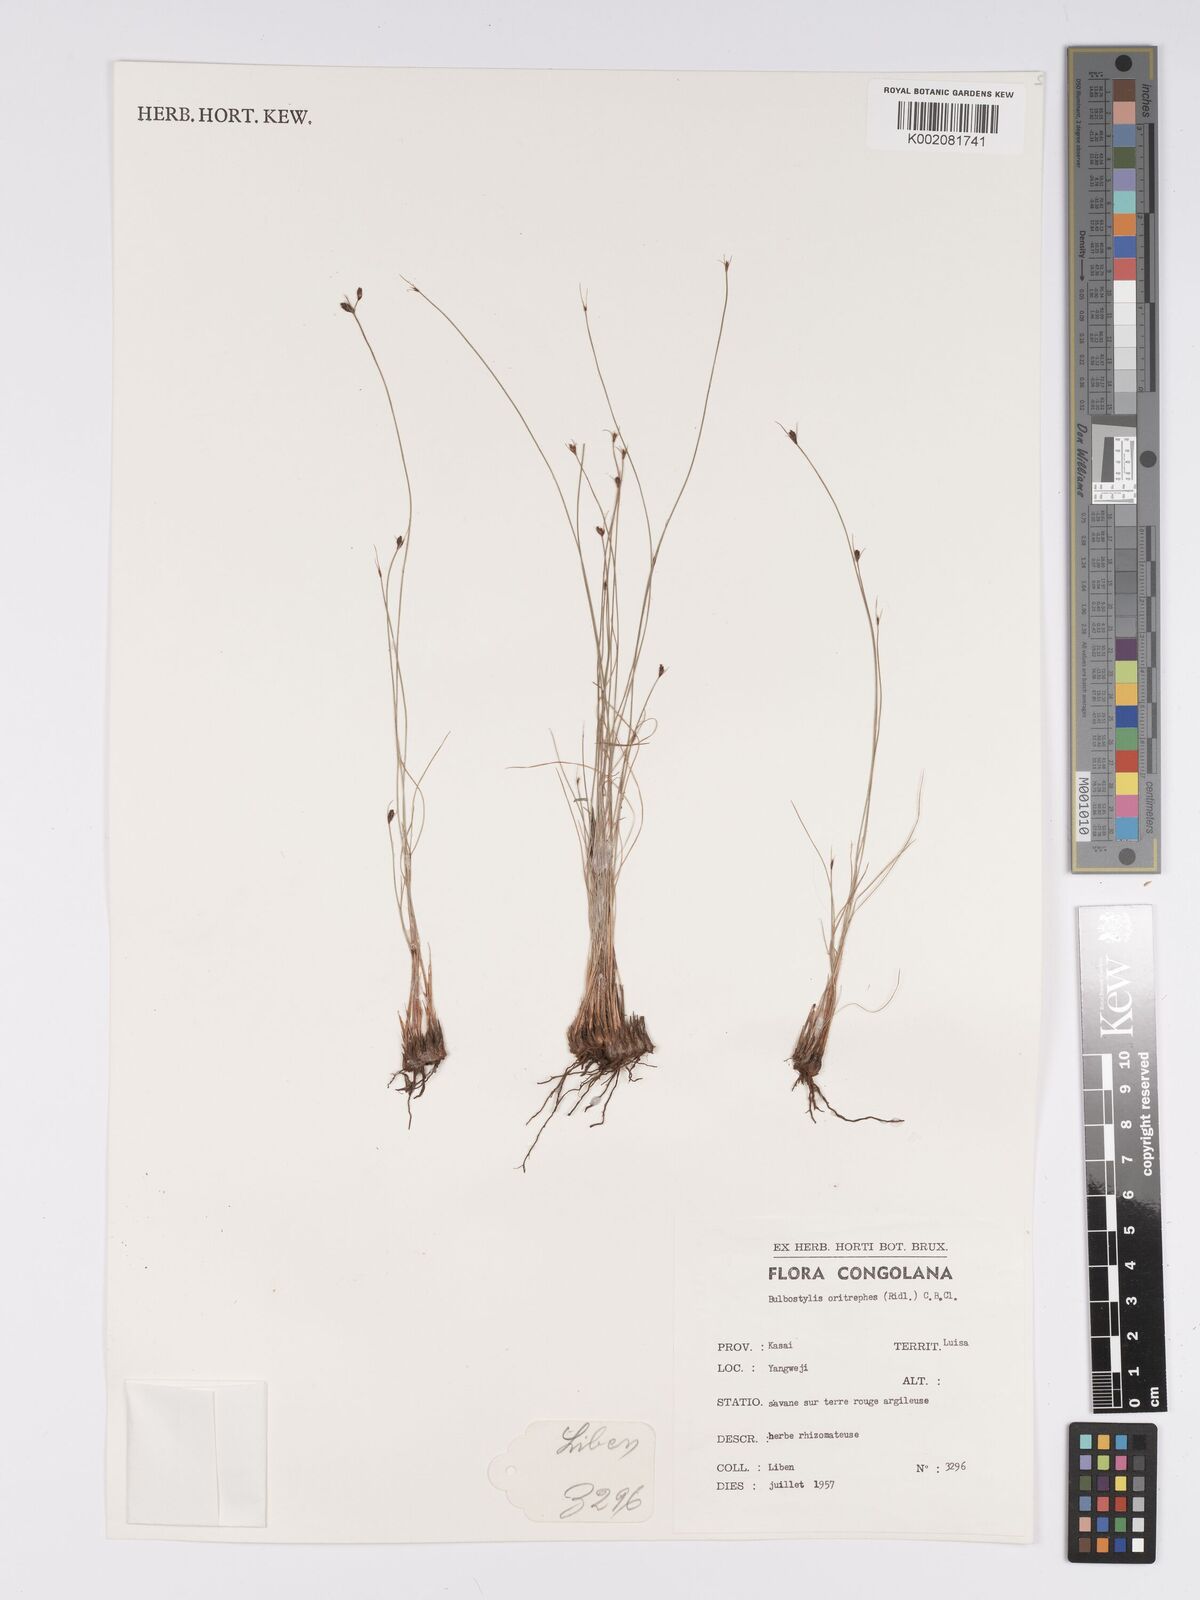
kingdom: Plantae
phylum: Tracheophyta
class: Liliopsida
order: Poales
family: Cyperaceae
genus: Bulbostylis
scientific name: Bulbostylis oritrephes
